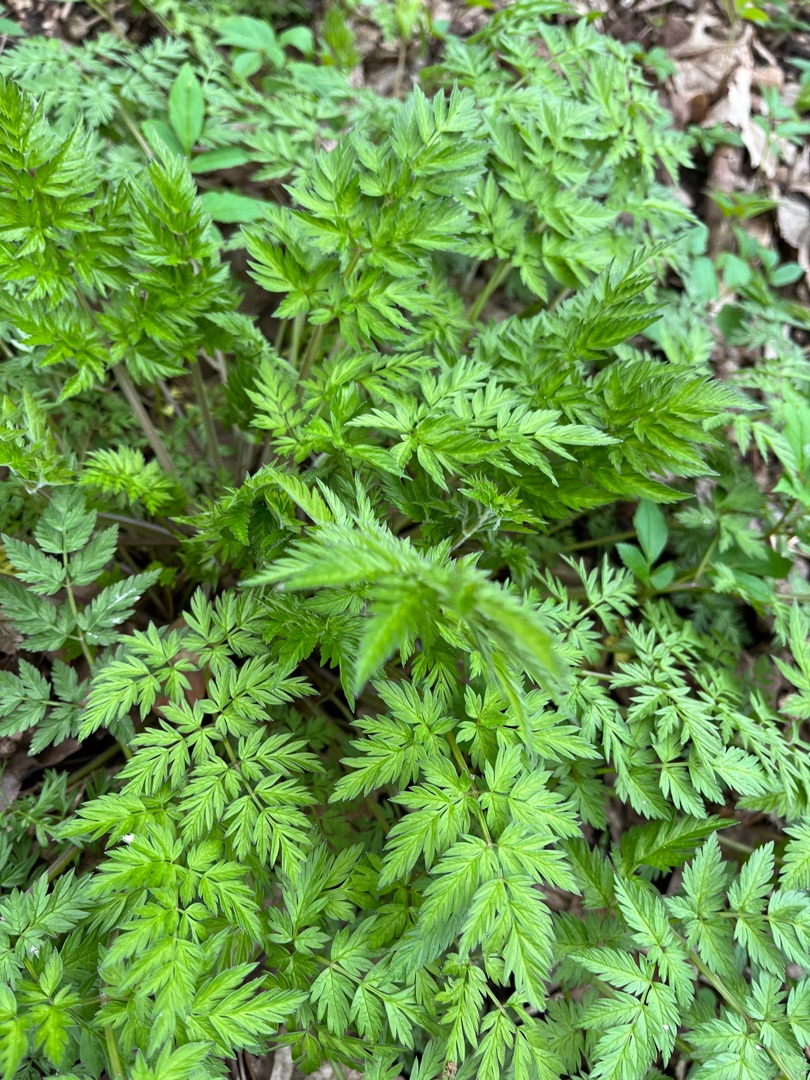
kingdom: Plantae
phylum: Tracheophyta
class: Magnoliopsida
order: Apiales
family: Apiaceae
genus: Anthriscus
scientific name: Anthriscus sylvestris
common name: Vild kørvel
